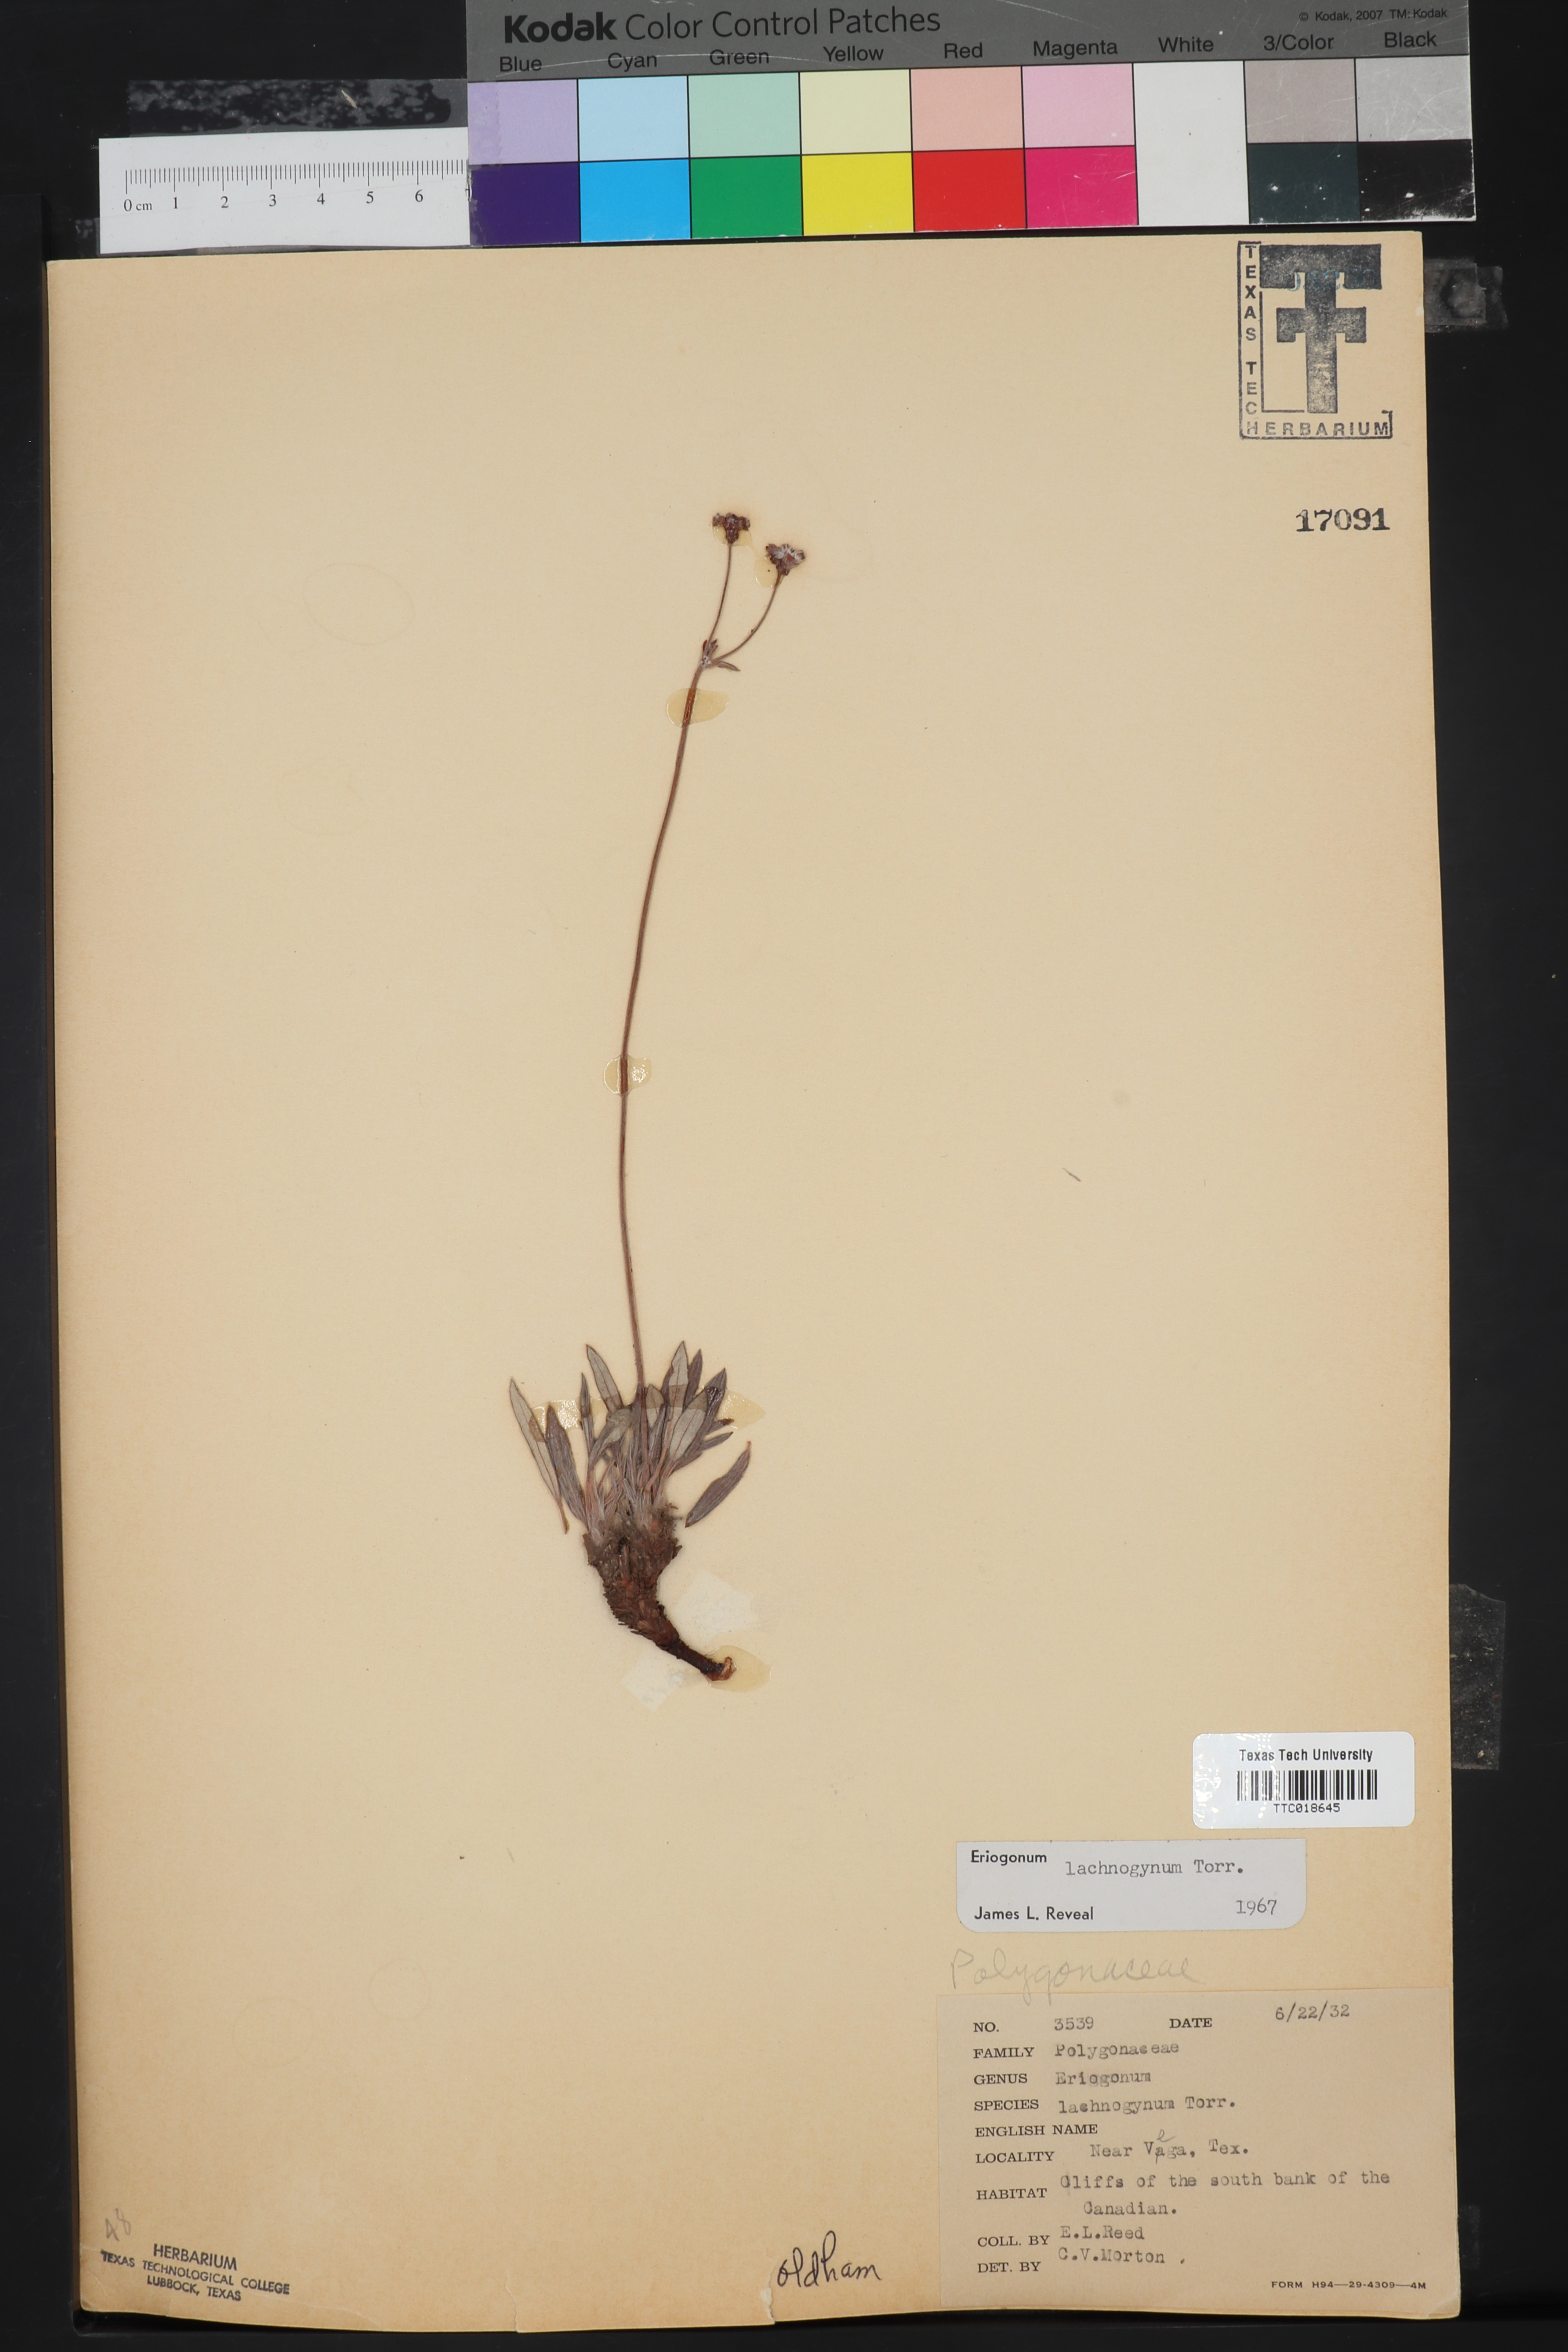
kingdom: Plantae
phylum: Tracheophyta
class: Magnoliopsida
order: Caryophyllales
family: Polygonaceae
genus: Eriogonum
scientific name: Eriogonum lachnogynum
